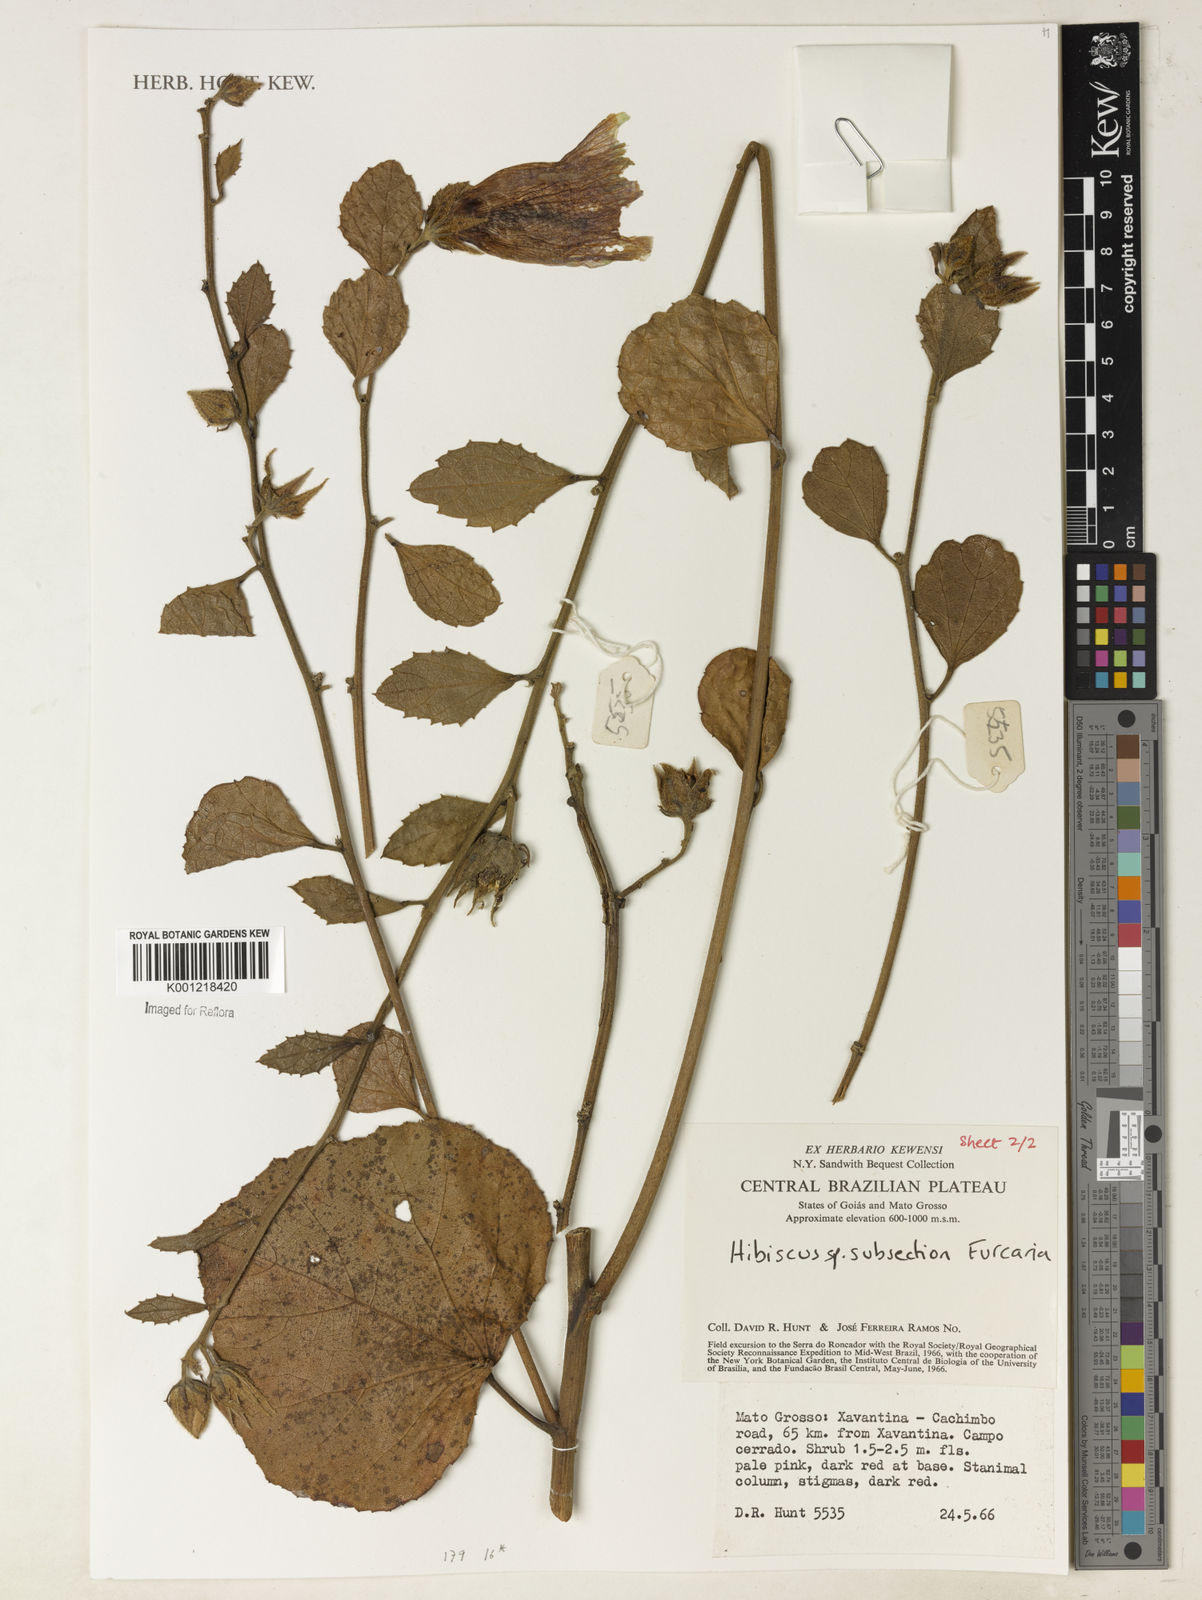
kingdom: Plantae
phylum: Tracheophyta
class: Magnoliopsida
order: Malvales
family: Malvaceae
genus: Hibiscus
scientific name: Hibiscus
